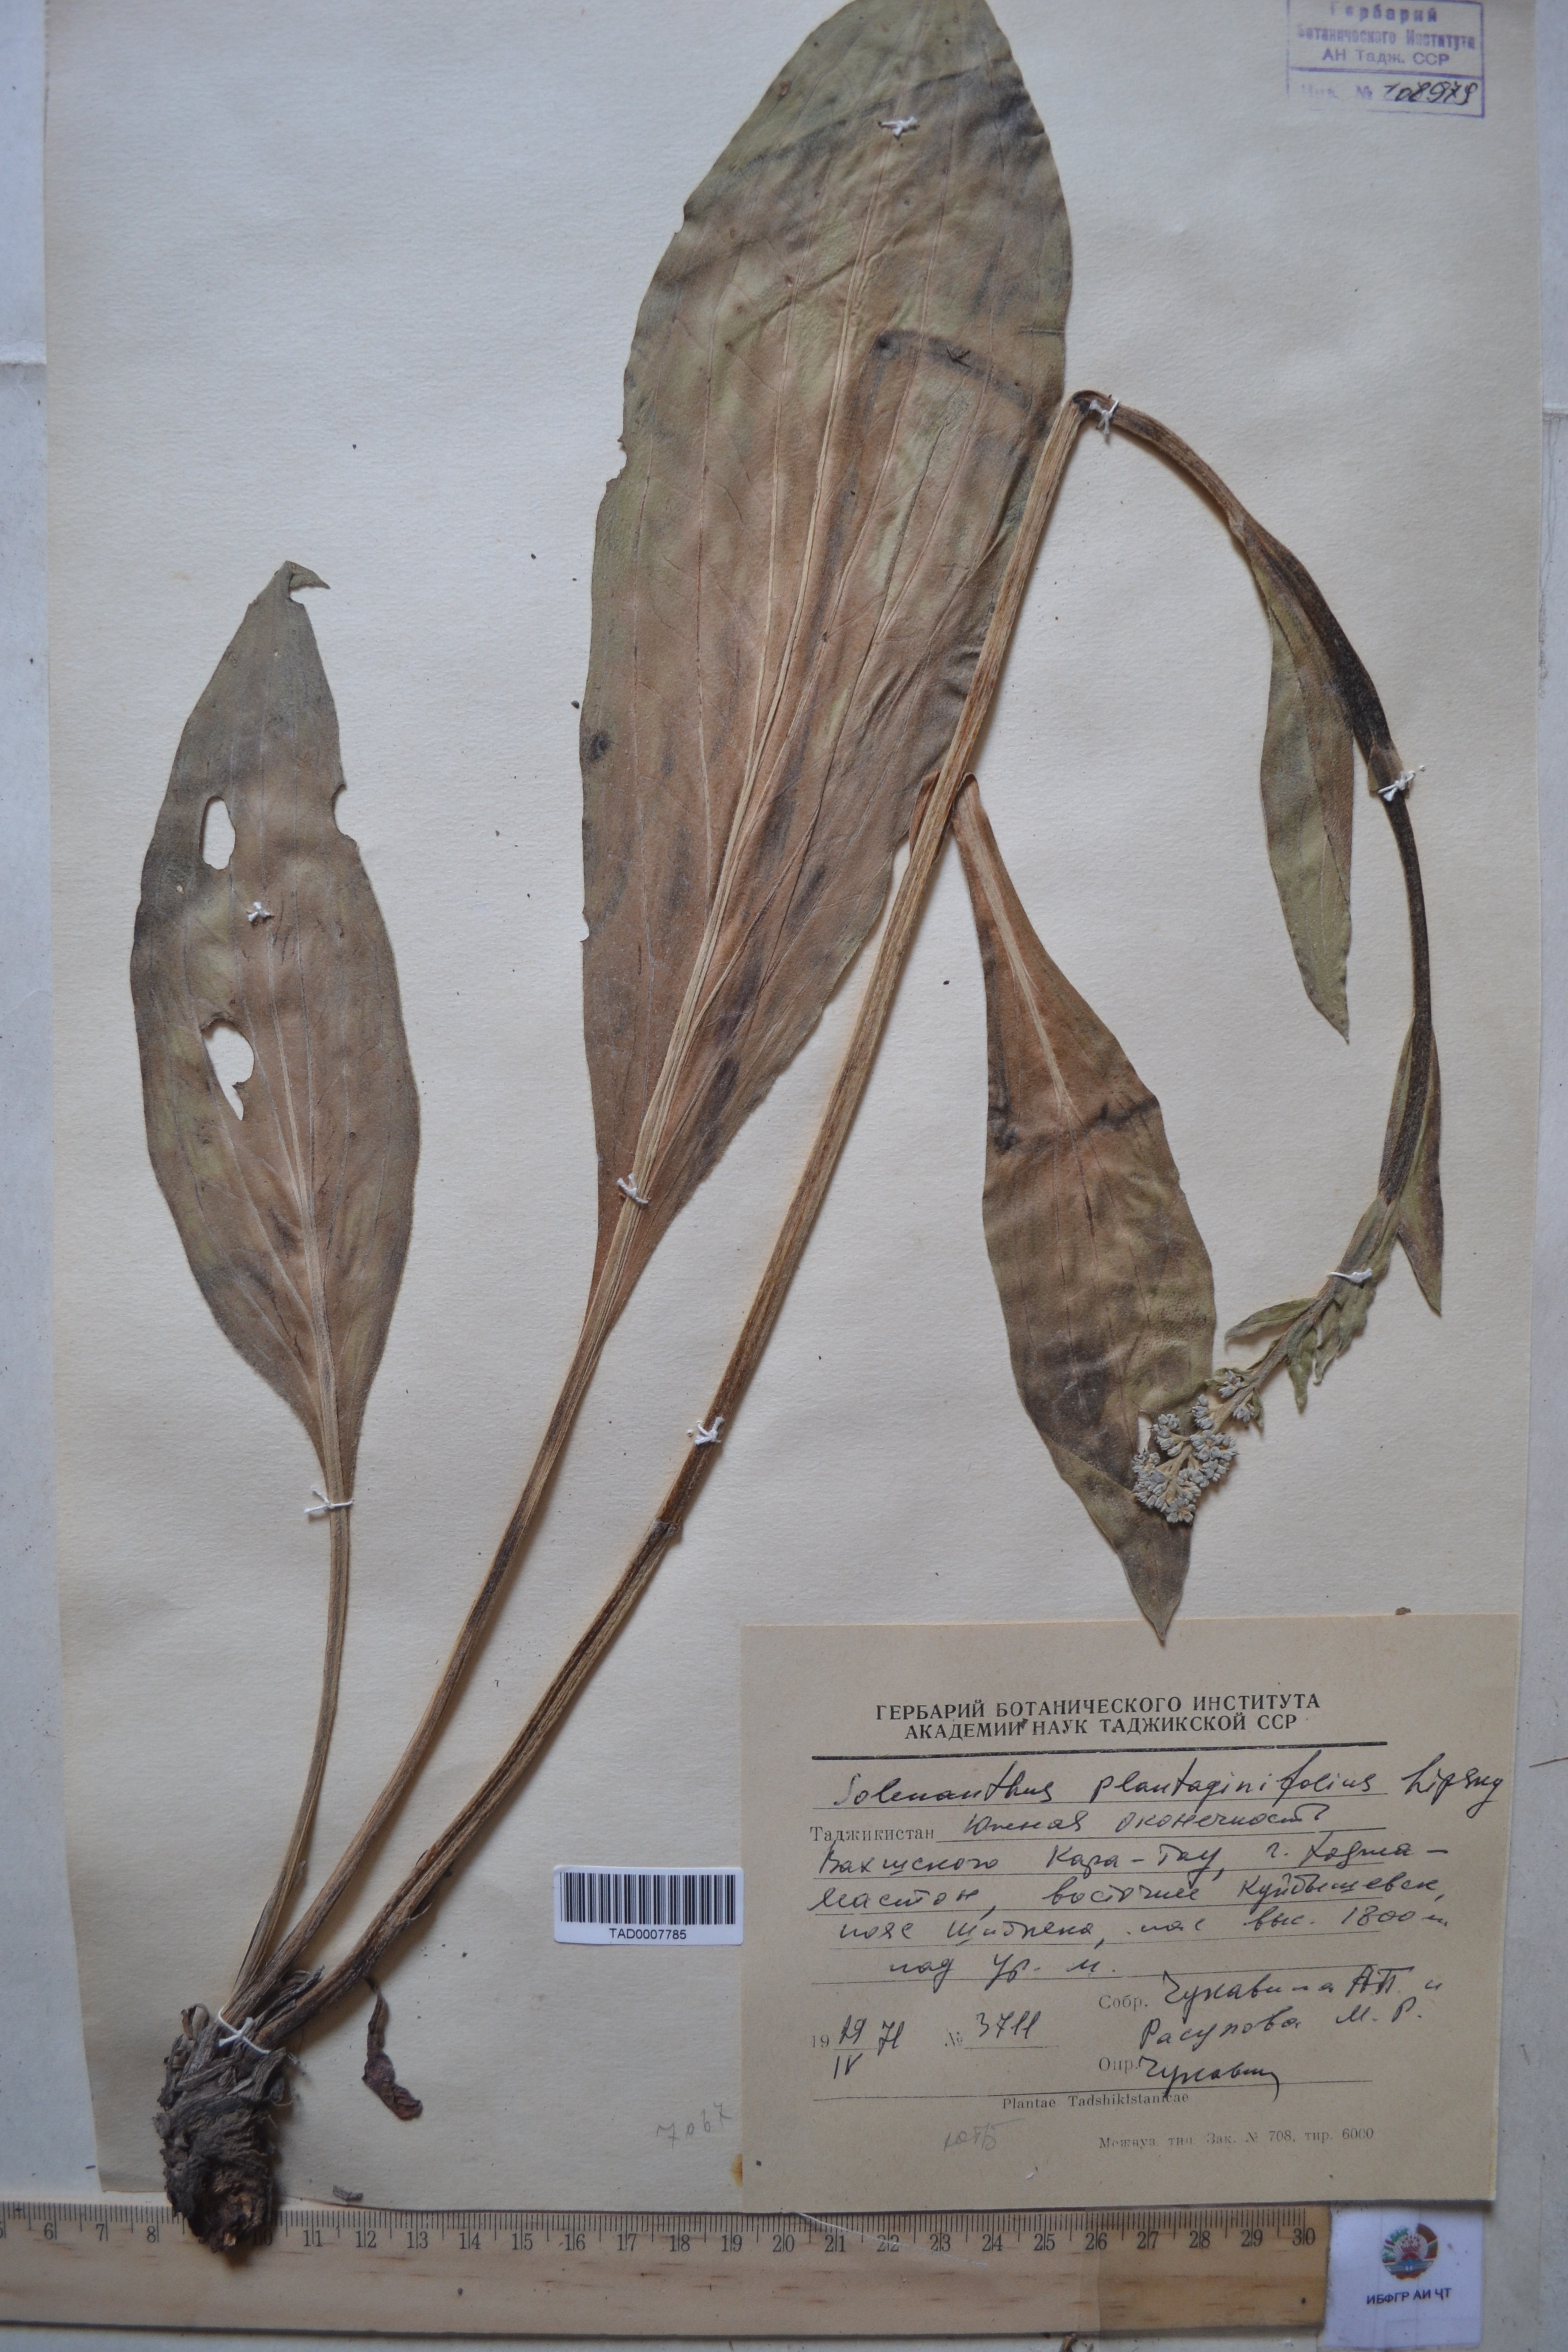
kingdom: Plantae
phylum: Tracheophyta
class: Magnoliopsida
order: Boraginales
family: Boraginaceae
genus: Solenanthus
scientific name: Solenanthus plantaginifolius
